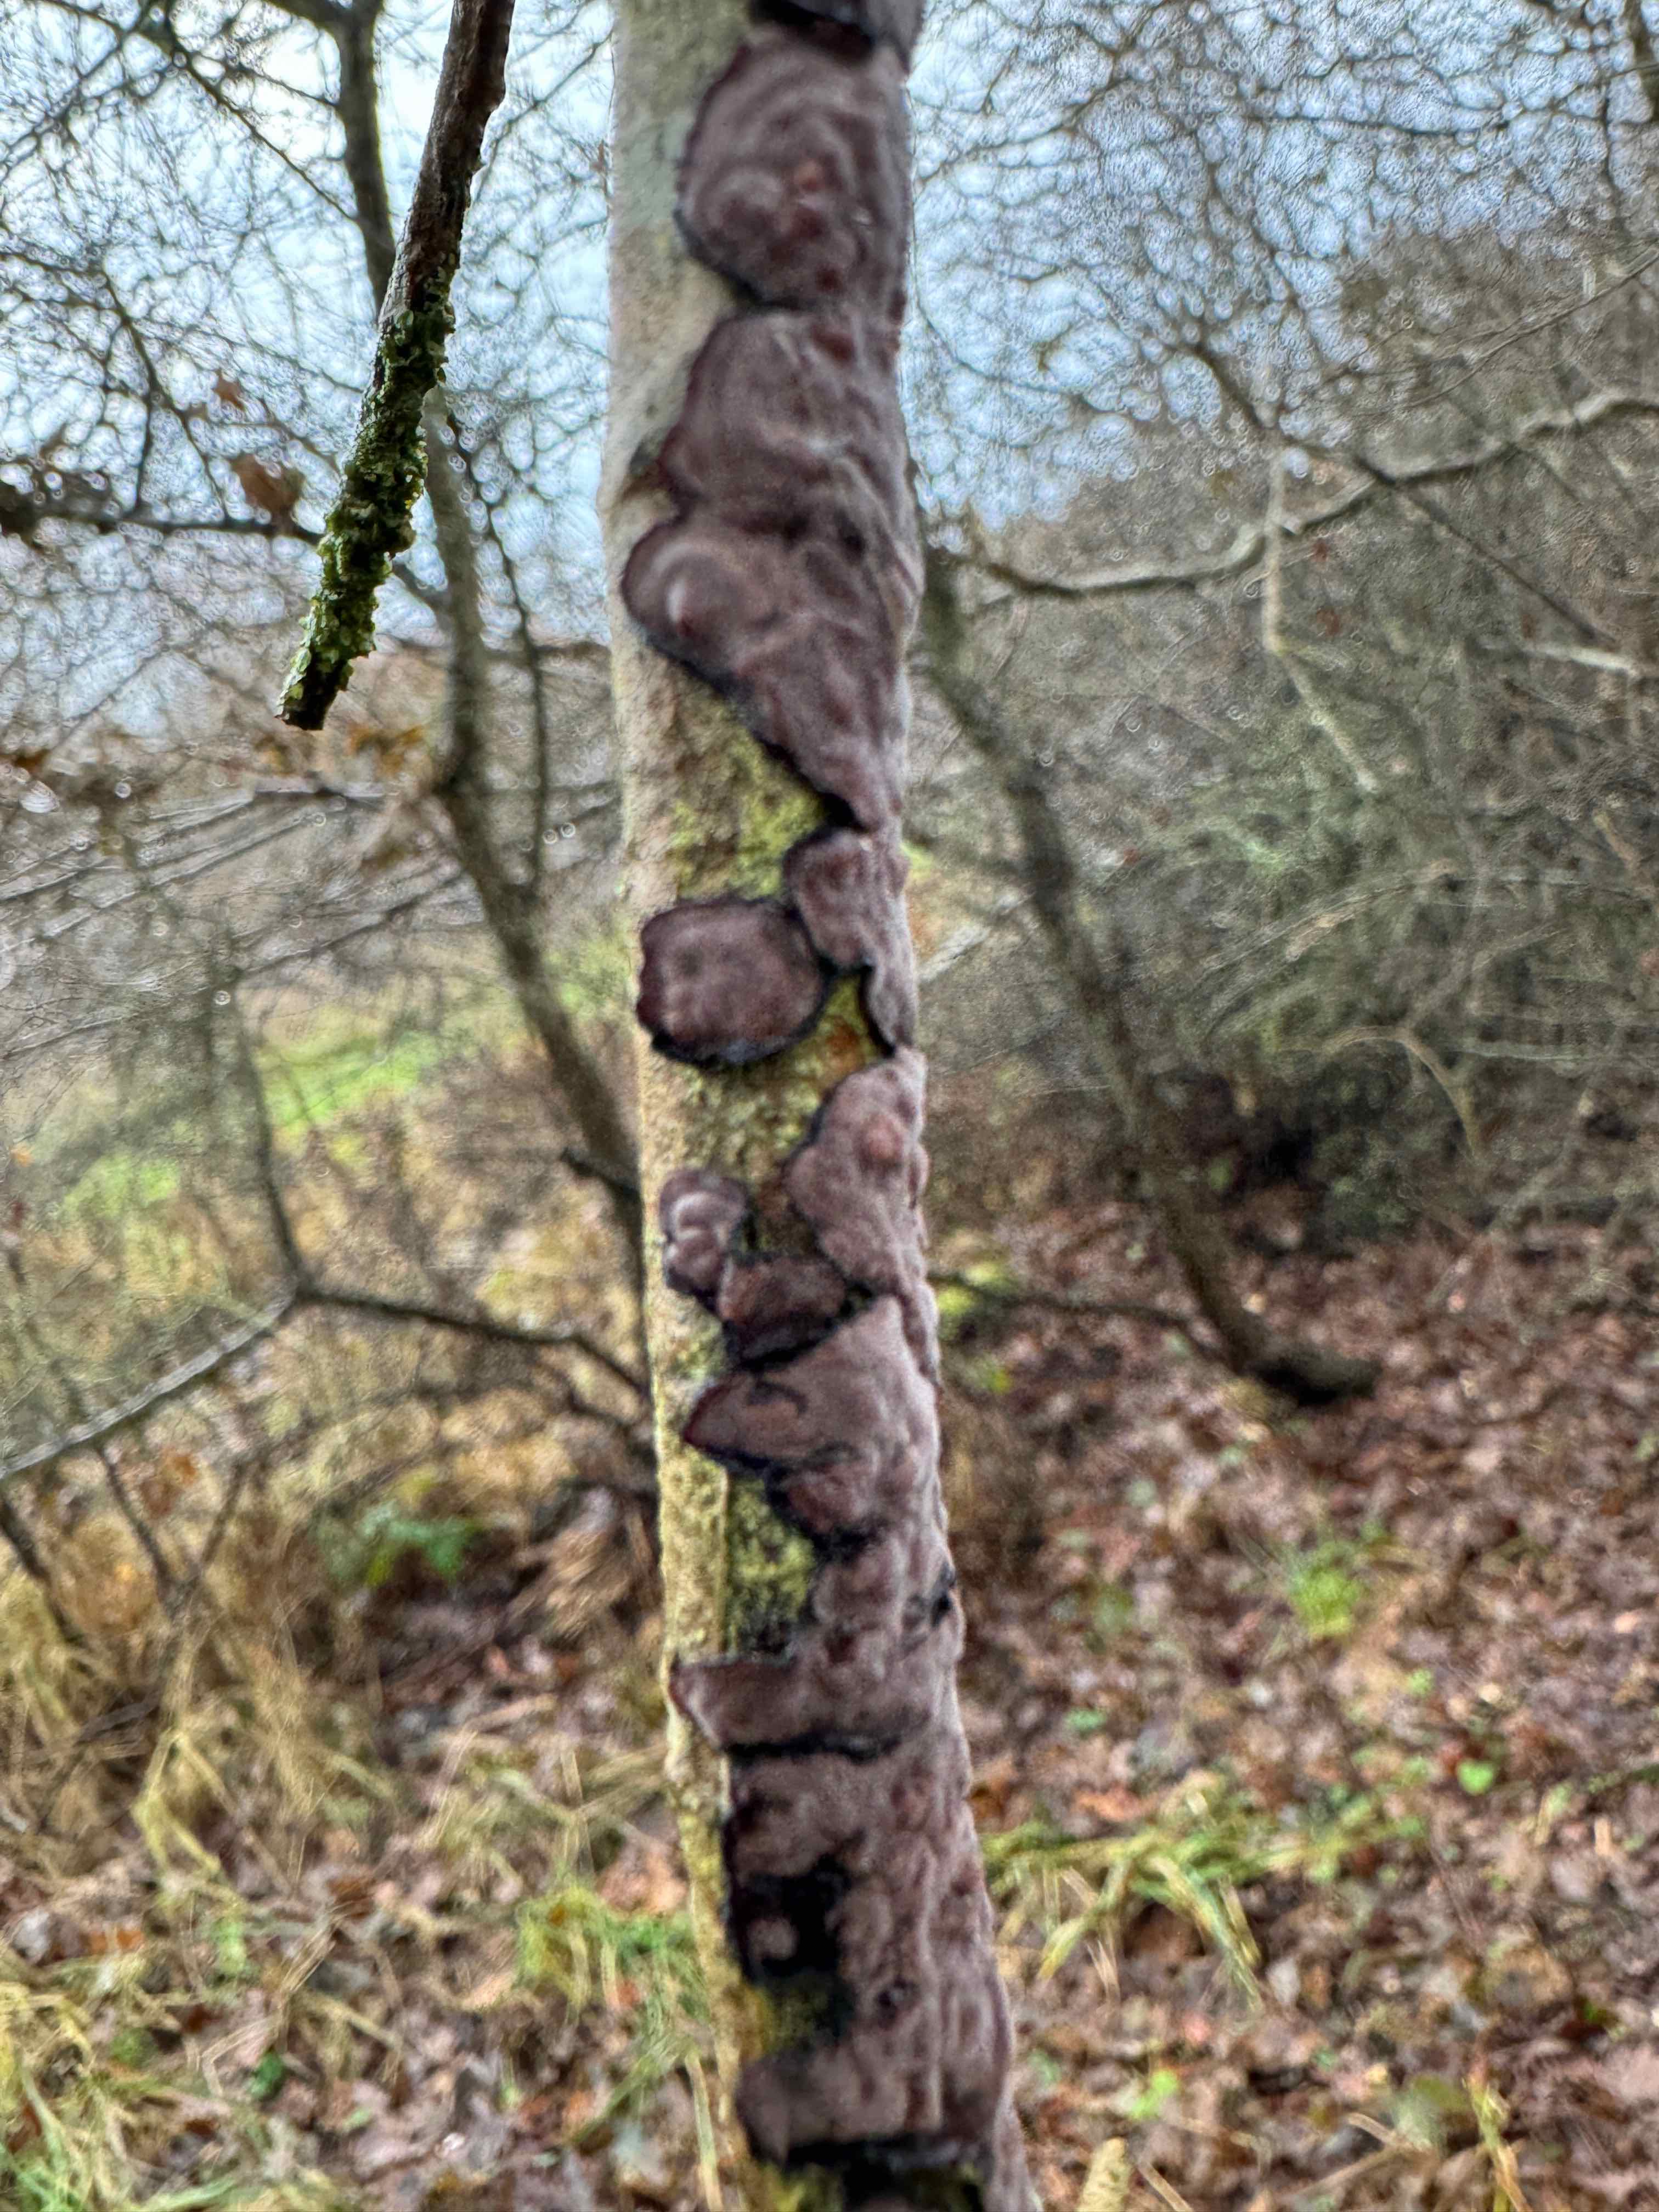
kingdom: Fungi
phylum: Basidiomycota
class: Agaricomycetes
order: Russulales
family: Peniophoraceae
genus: Peniophora
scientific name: Peniophora quercina
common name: ege-voksskind
